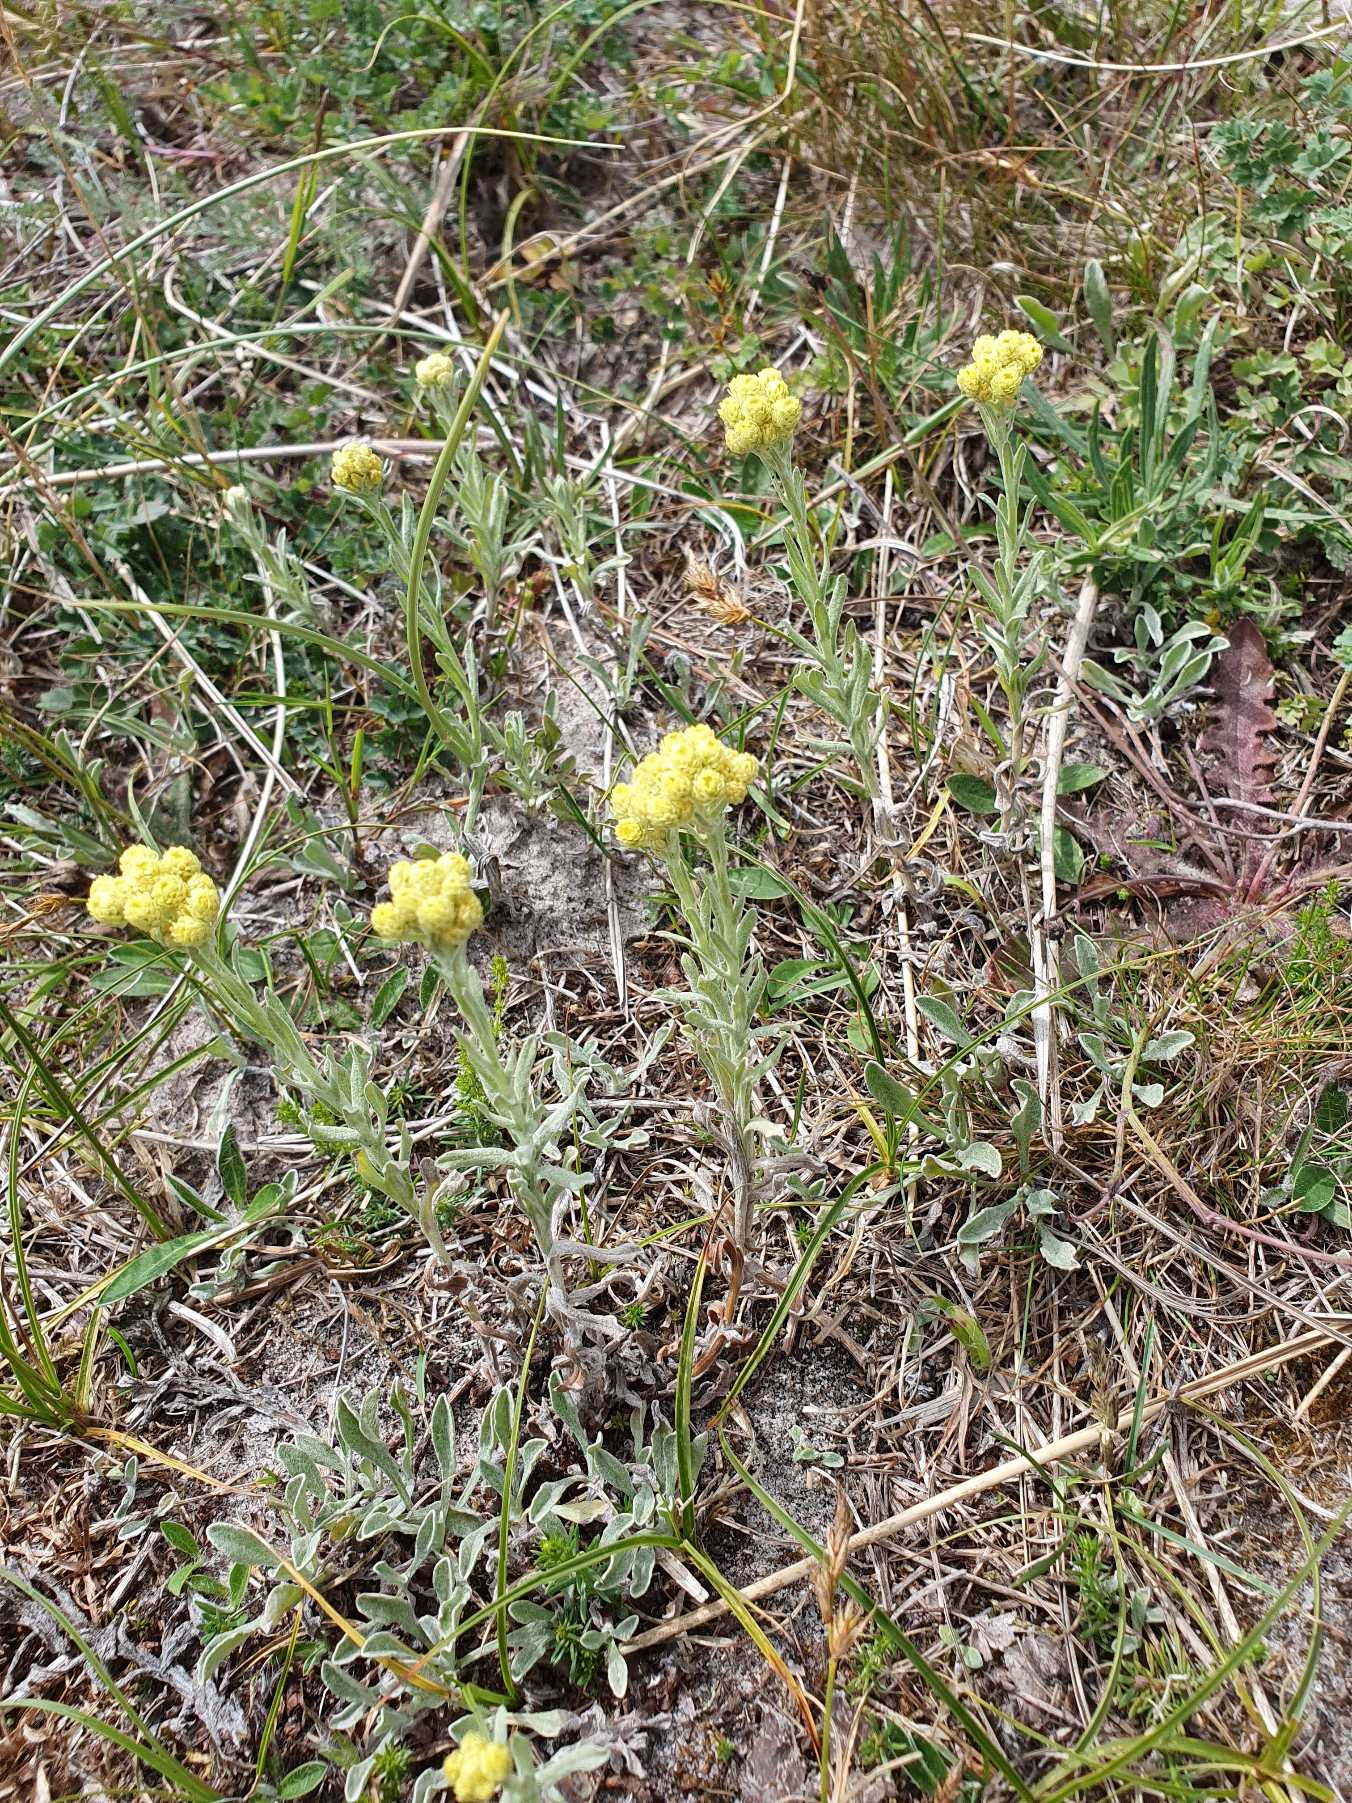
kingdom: Plantae
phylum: Tracheophyta
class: Magnoliopsida
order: Asterales
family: Asteraceae
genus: Helichrysum
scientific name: Helichrysum arenarium
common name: Gul evighedsblomst
